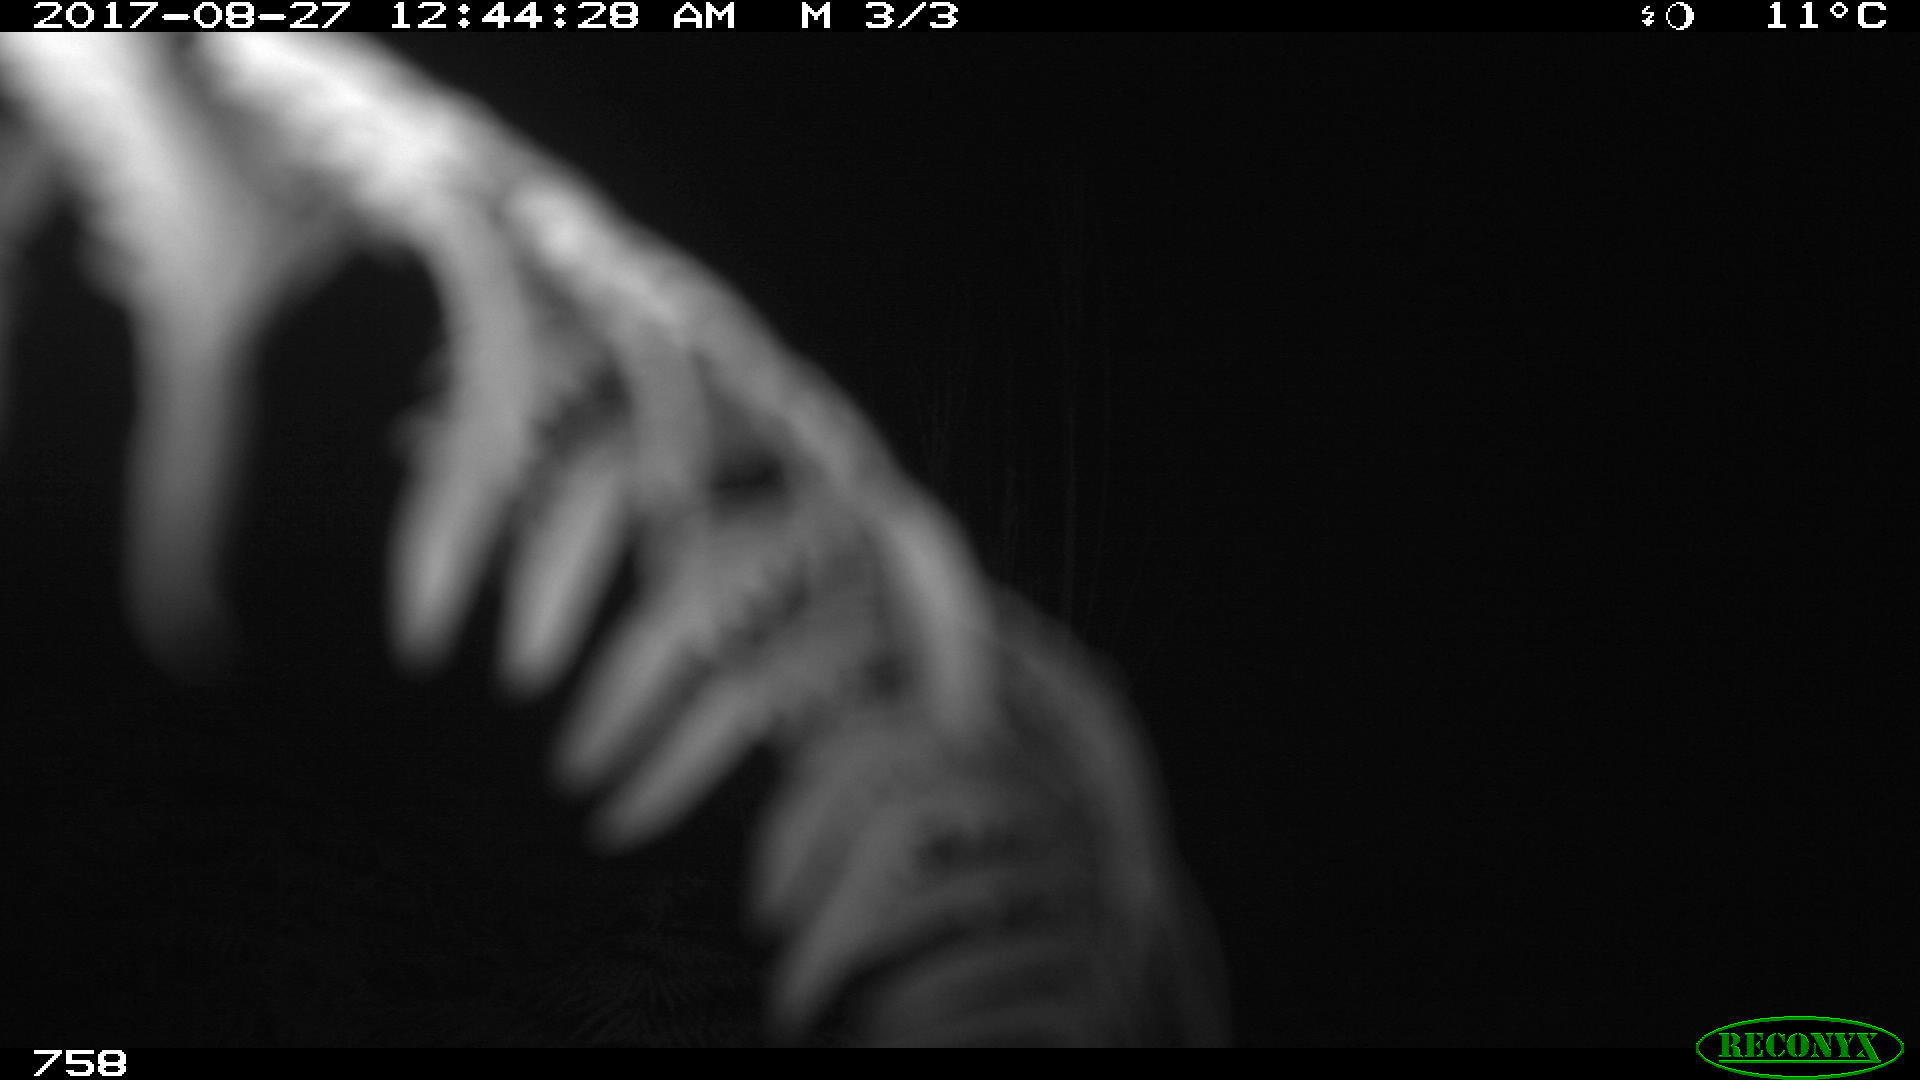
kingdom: Animalia
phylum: Chordata
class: Mammalia
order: Artiodactyla
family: Bovidae
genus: Bos
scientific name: Bos taurus
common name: Domesticated cattle
